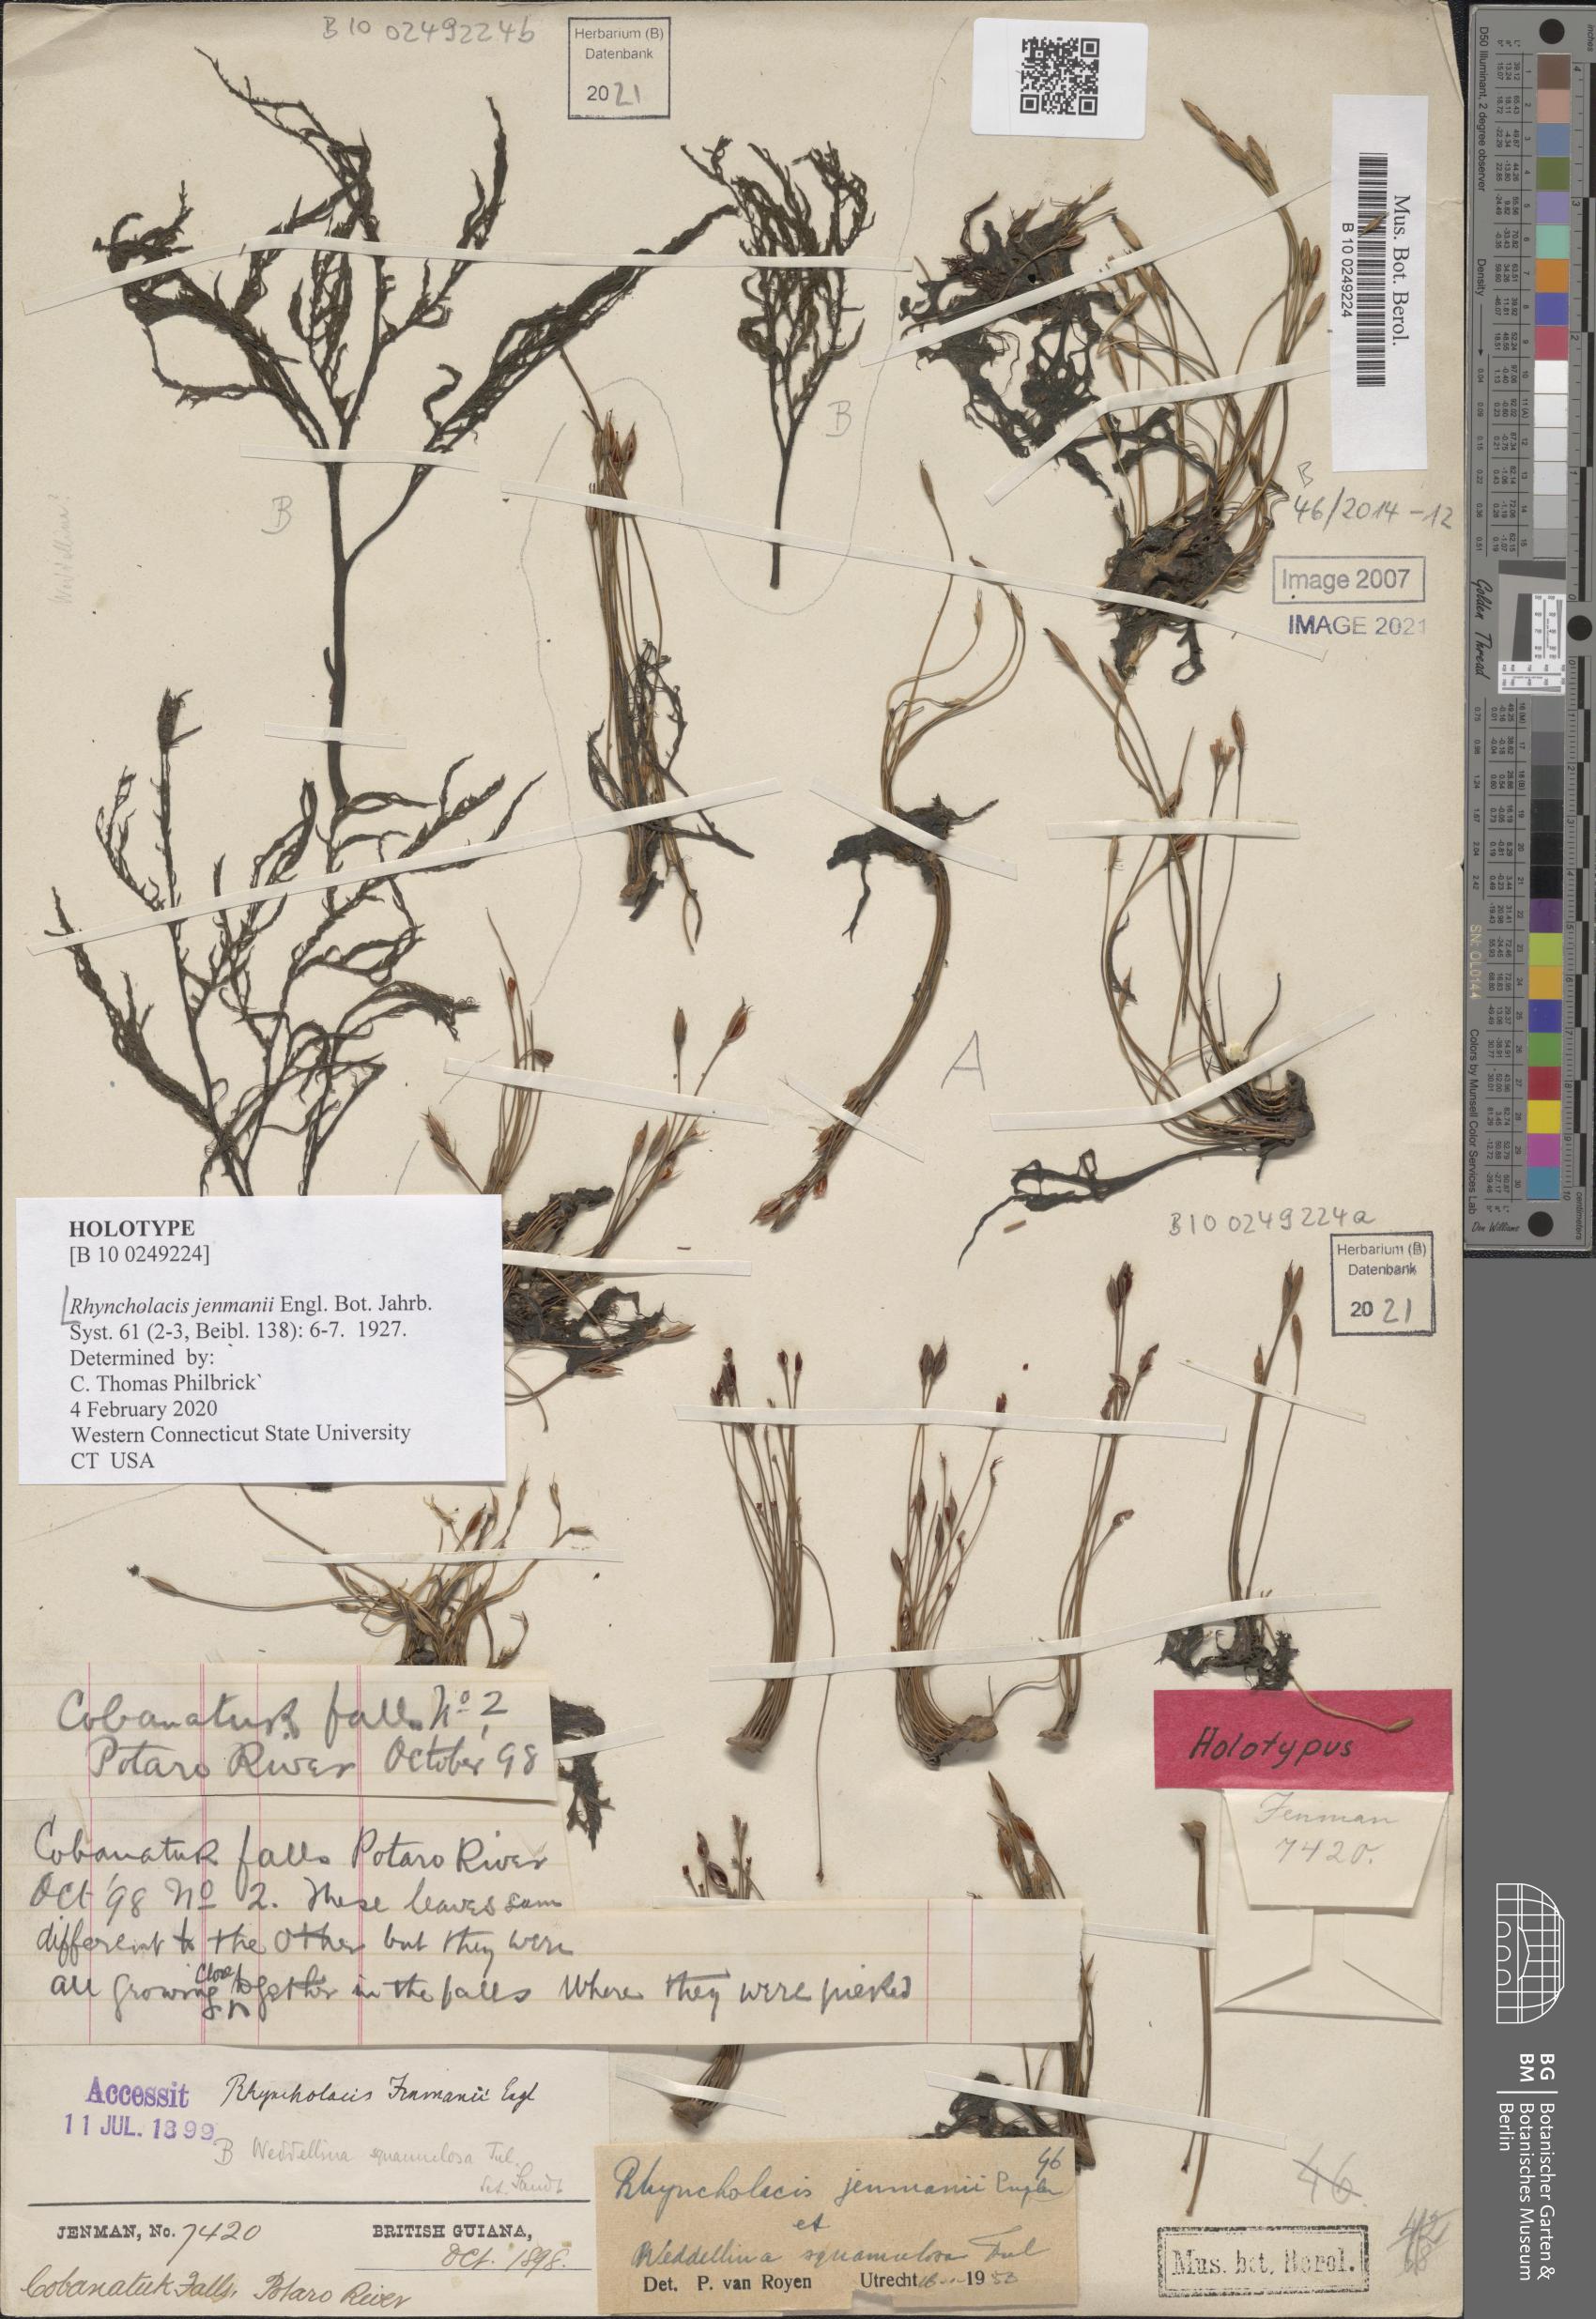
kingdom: Plantae
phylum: Tracheophyta
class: Magnoliopsida
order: Malpighiales
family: Podostemaceae
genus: Rhyncholacis
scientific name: Rhyncholacis jenmanii
